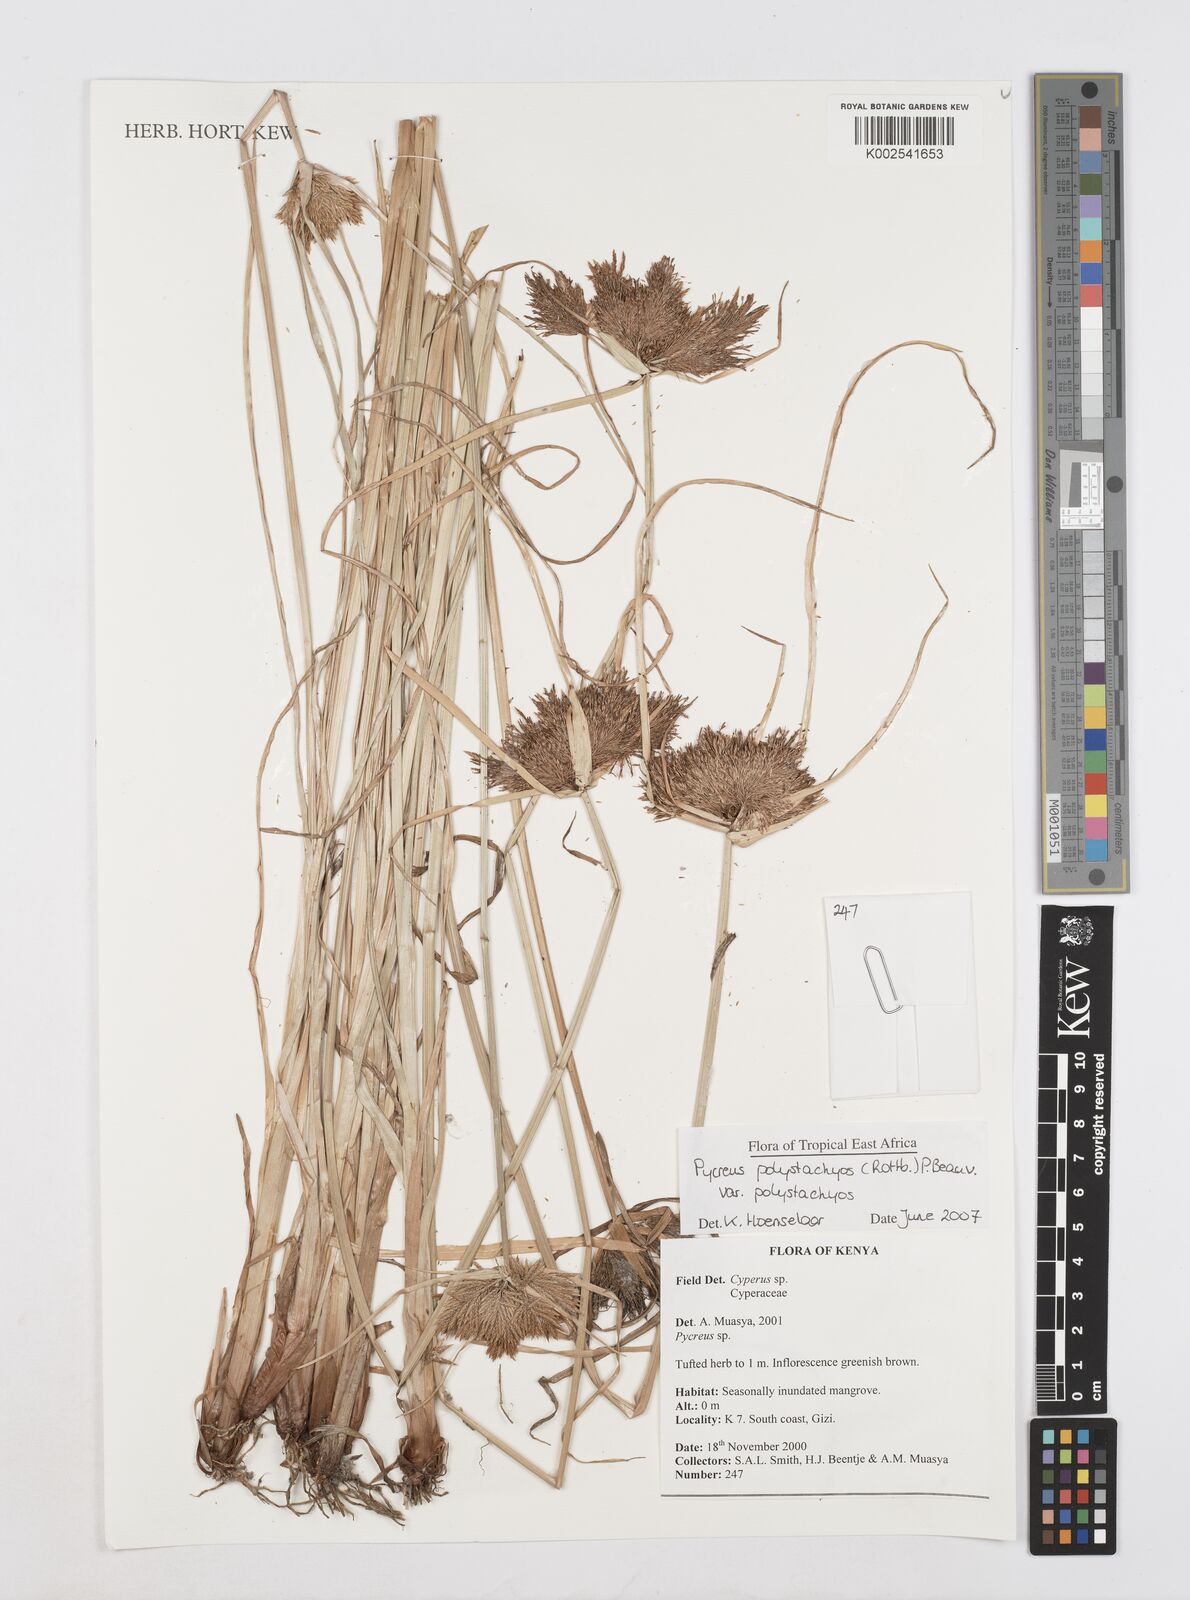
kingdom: Plantae
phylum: Tracheophyta
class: Liliopsida
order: Poales
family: Cyperaceae
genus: Cyperus
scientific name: Cyperus polystachyos
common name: Bunchy flat sedge
